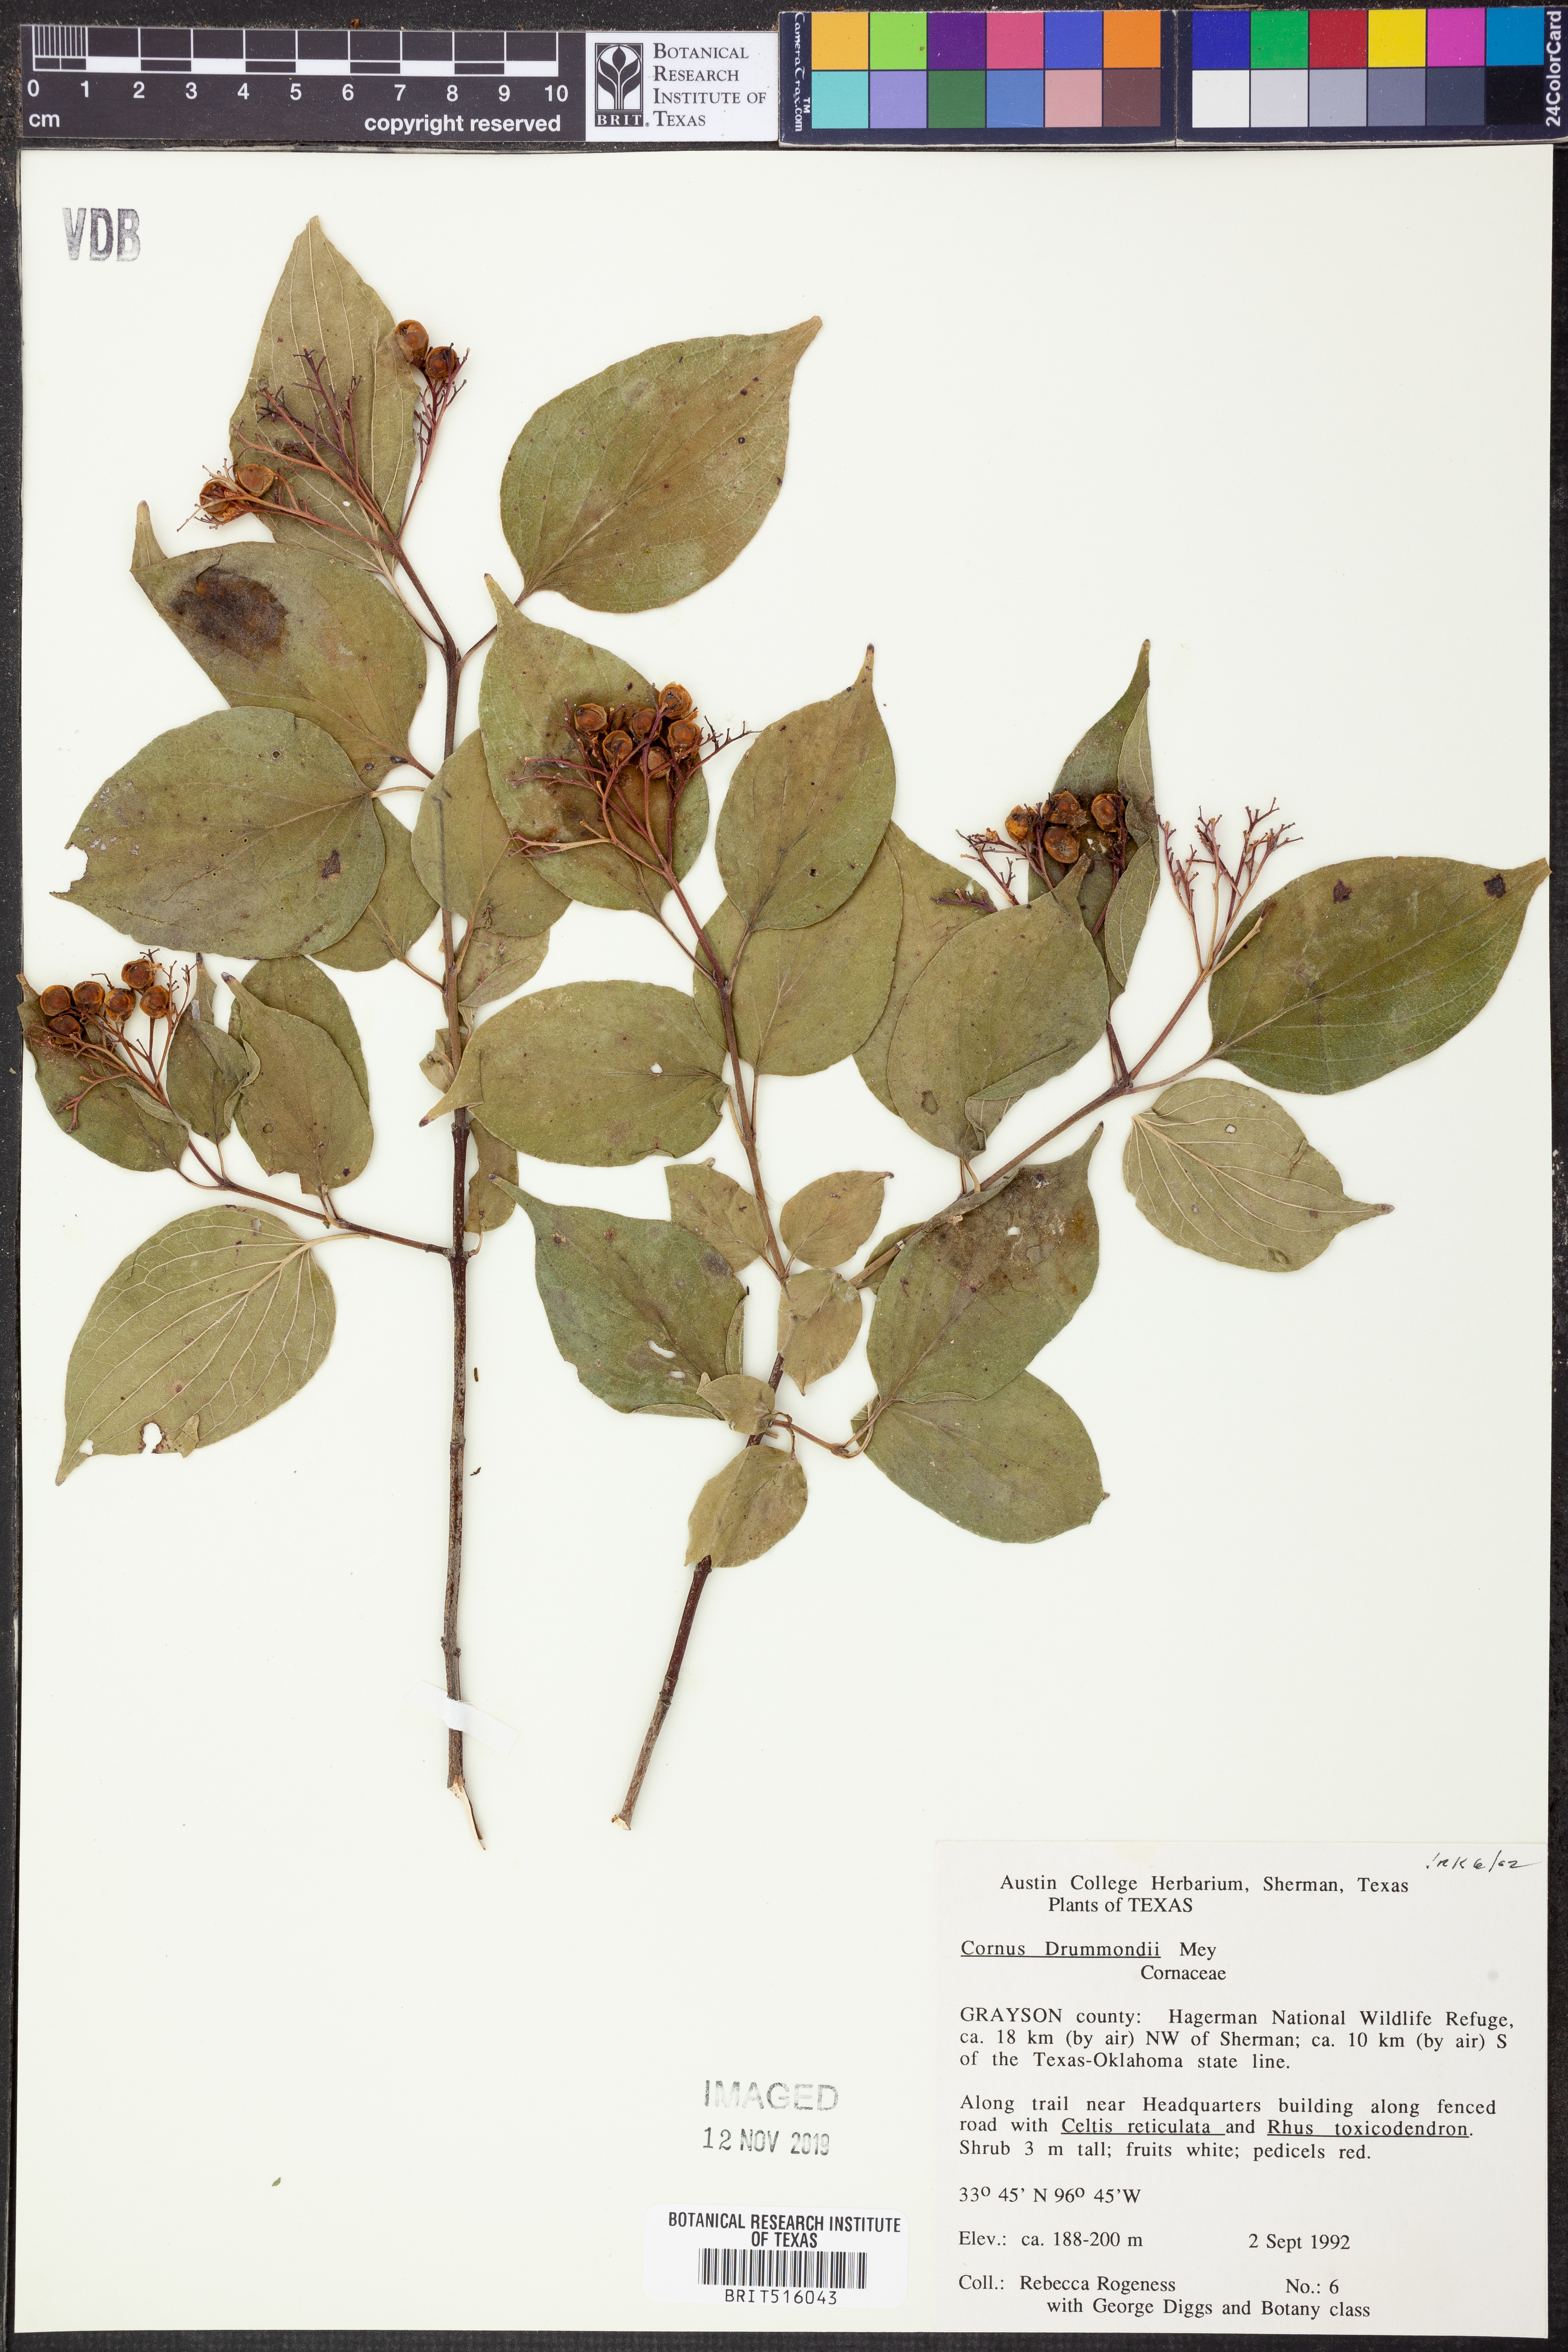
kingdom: Plantae
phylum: Tracheophyta
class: Magnoliopsida
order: Cornales
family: Cornaceae
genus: Cornus
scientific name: Cornus drummondii
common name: Rough-leaf dogwood
